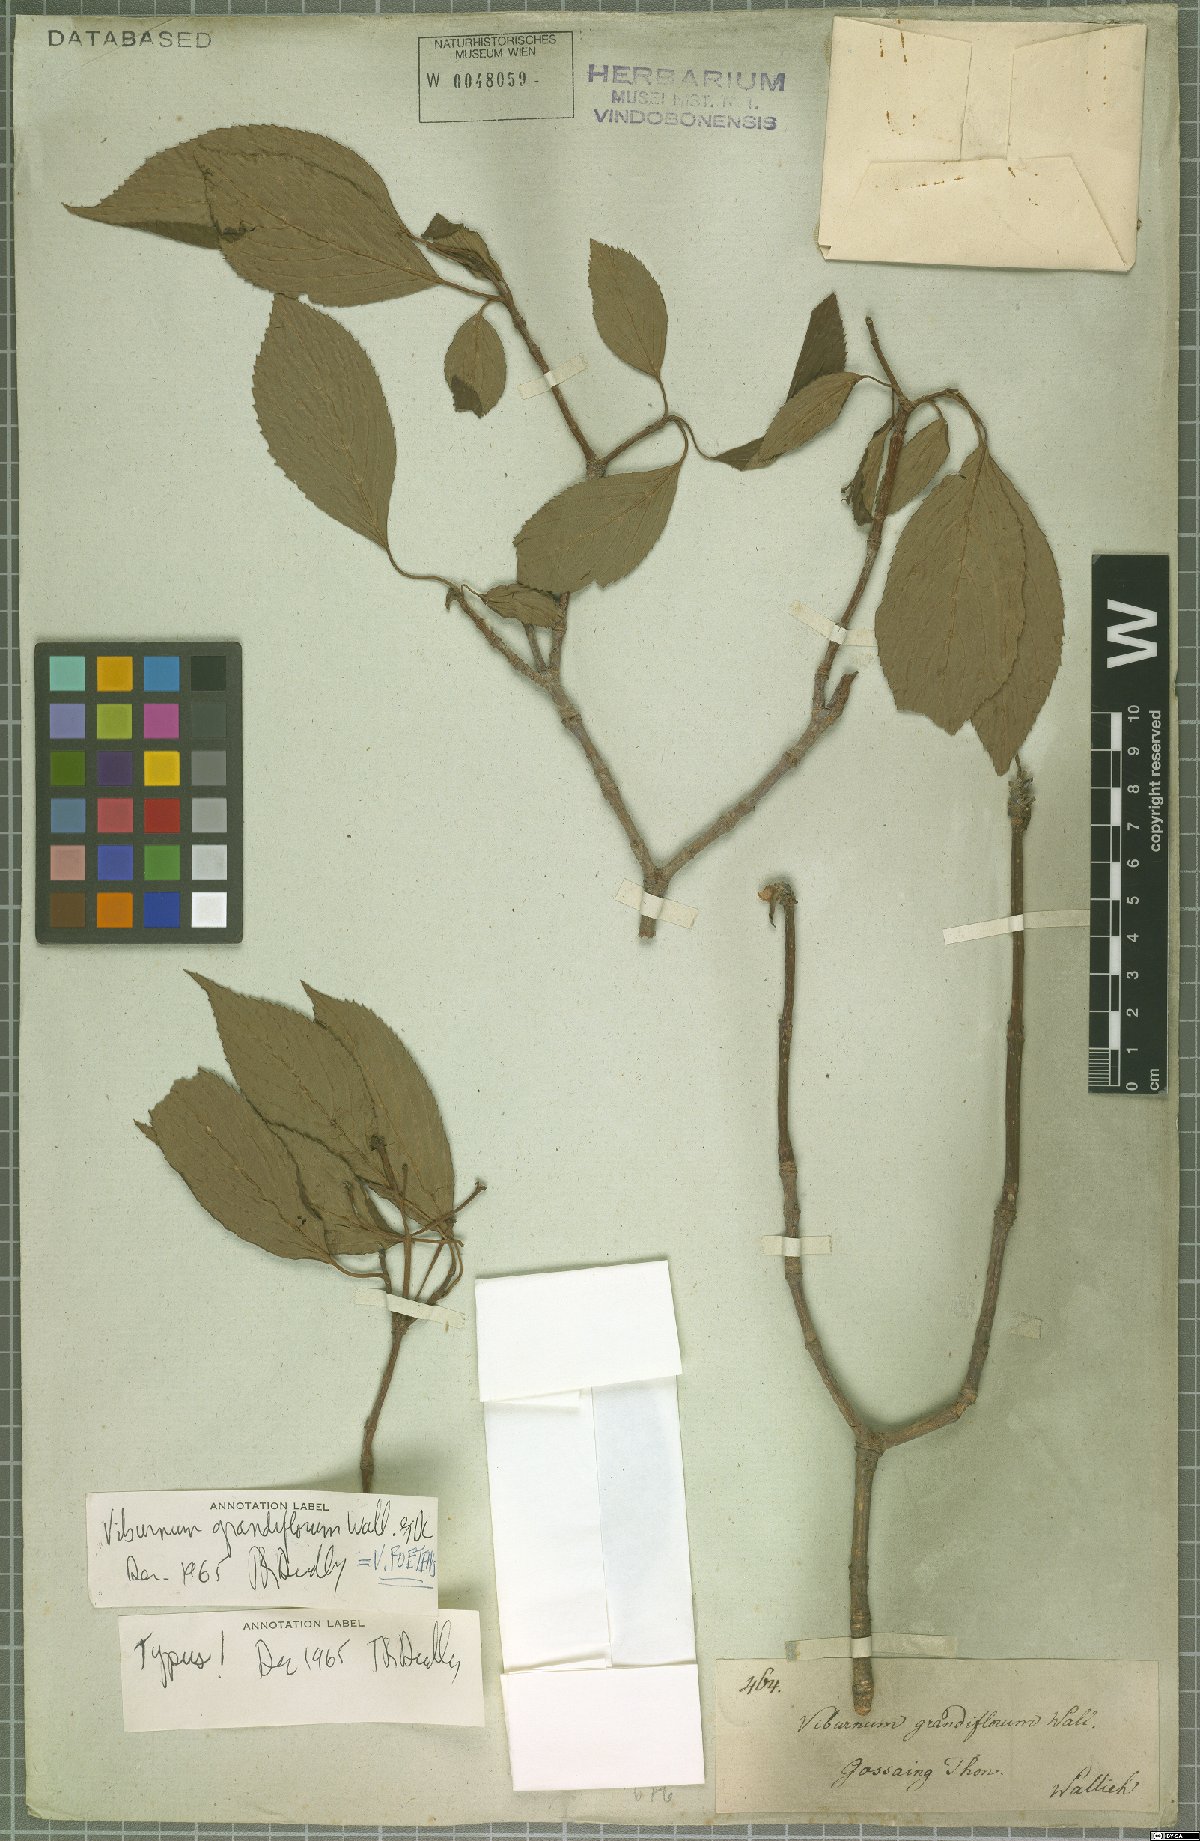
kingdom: Plantae
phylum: Tracheophyta
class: Magnoliopsida
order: Dipsacales
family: Viburnaceae
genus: Viburnum
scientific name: Viburnum grandiflorum
